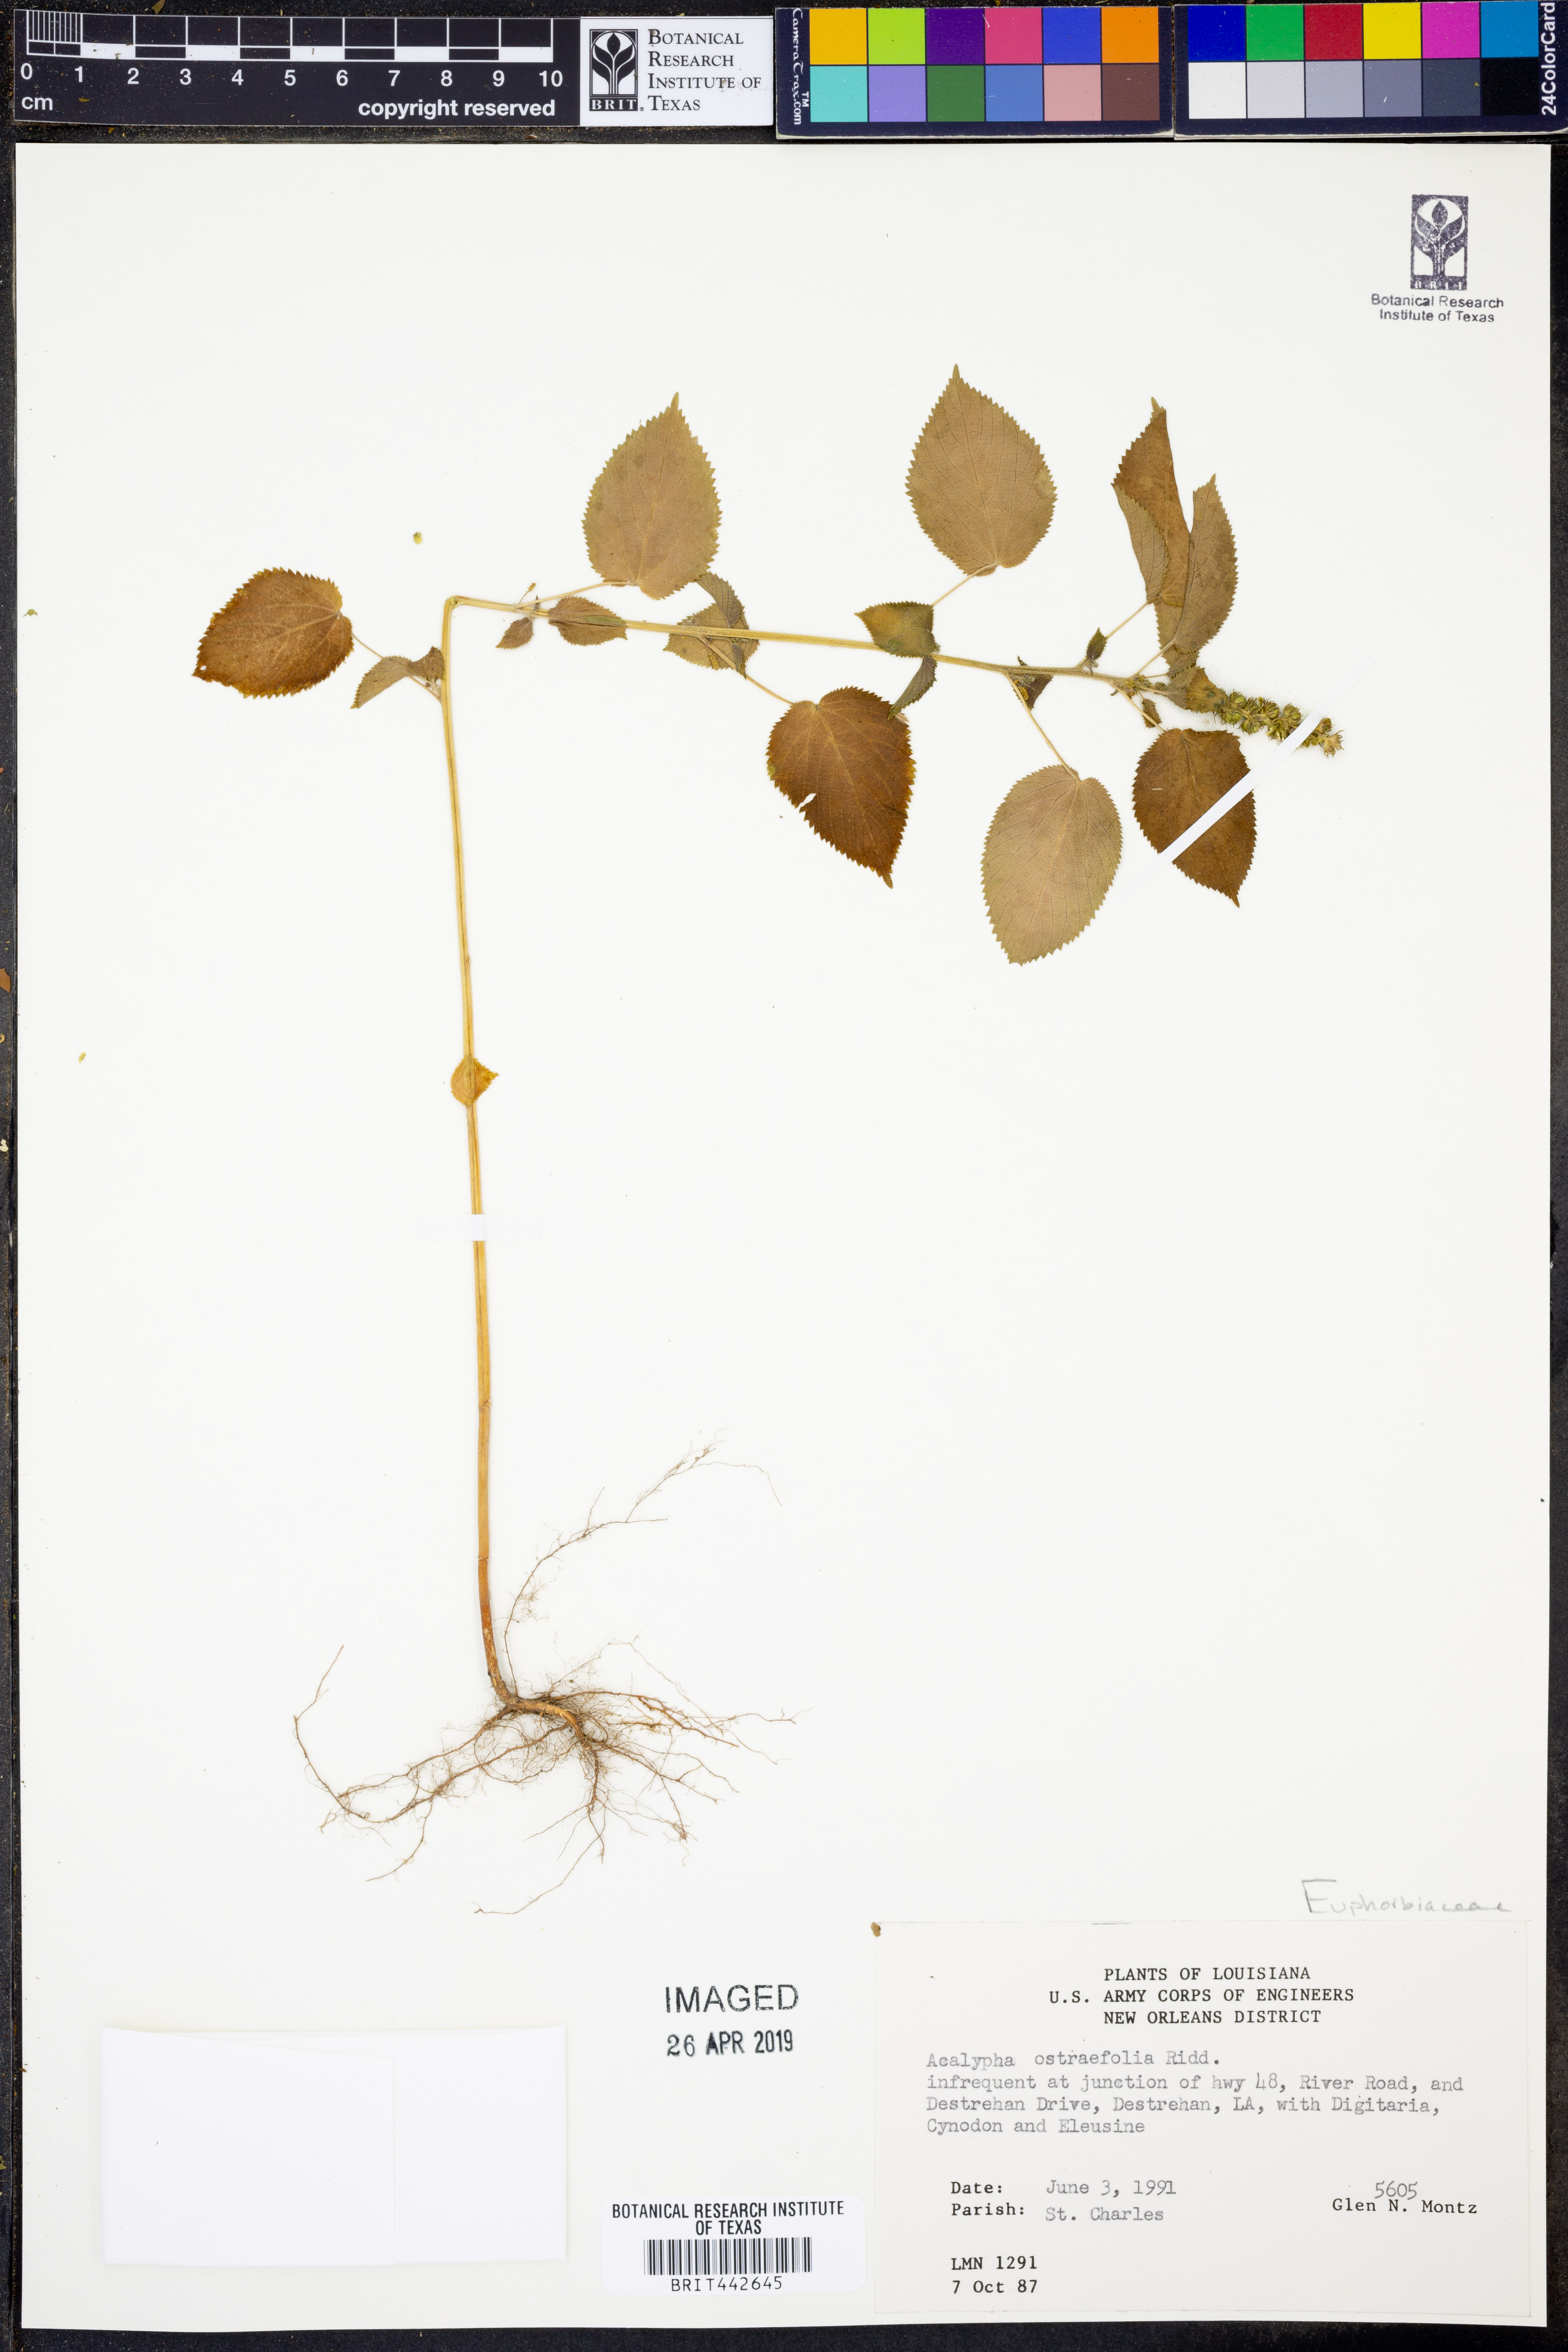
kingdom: Plantae
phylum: Tracheophyta
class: Magnoliopsida
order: Malpighiales
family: Euphorbiaceae
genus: Acalypha
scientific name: Acalypha ostryifolia
